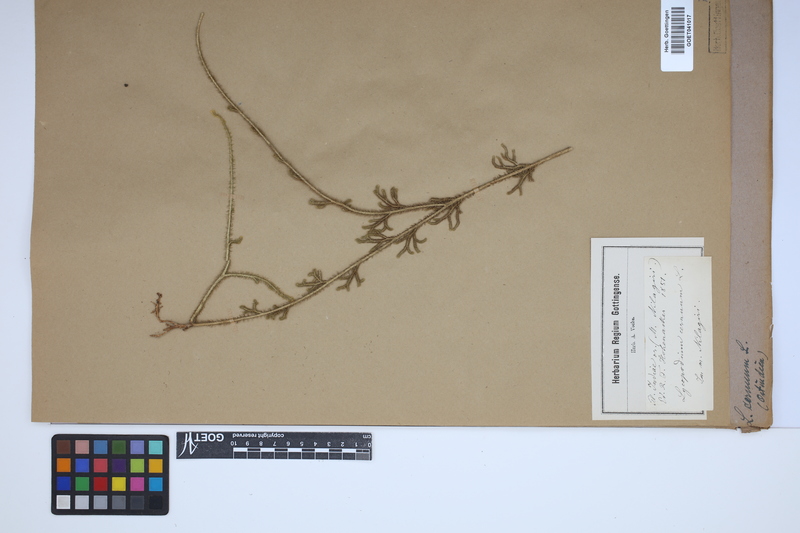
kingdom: Plantae
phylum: Tracheophyta
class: Lycopodiopsida
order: Lycopodiales
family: Lycopodiaceae
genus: Palhinhaea
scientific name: Palhinhaea cernua
